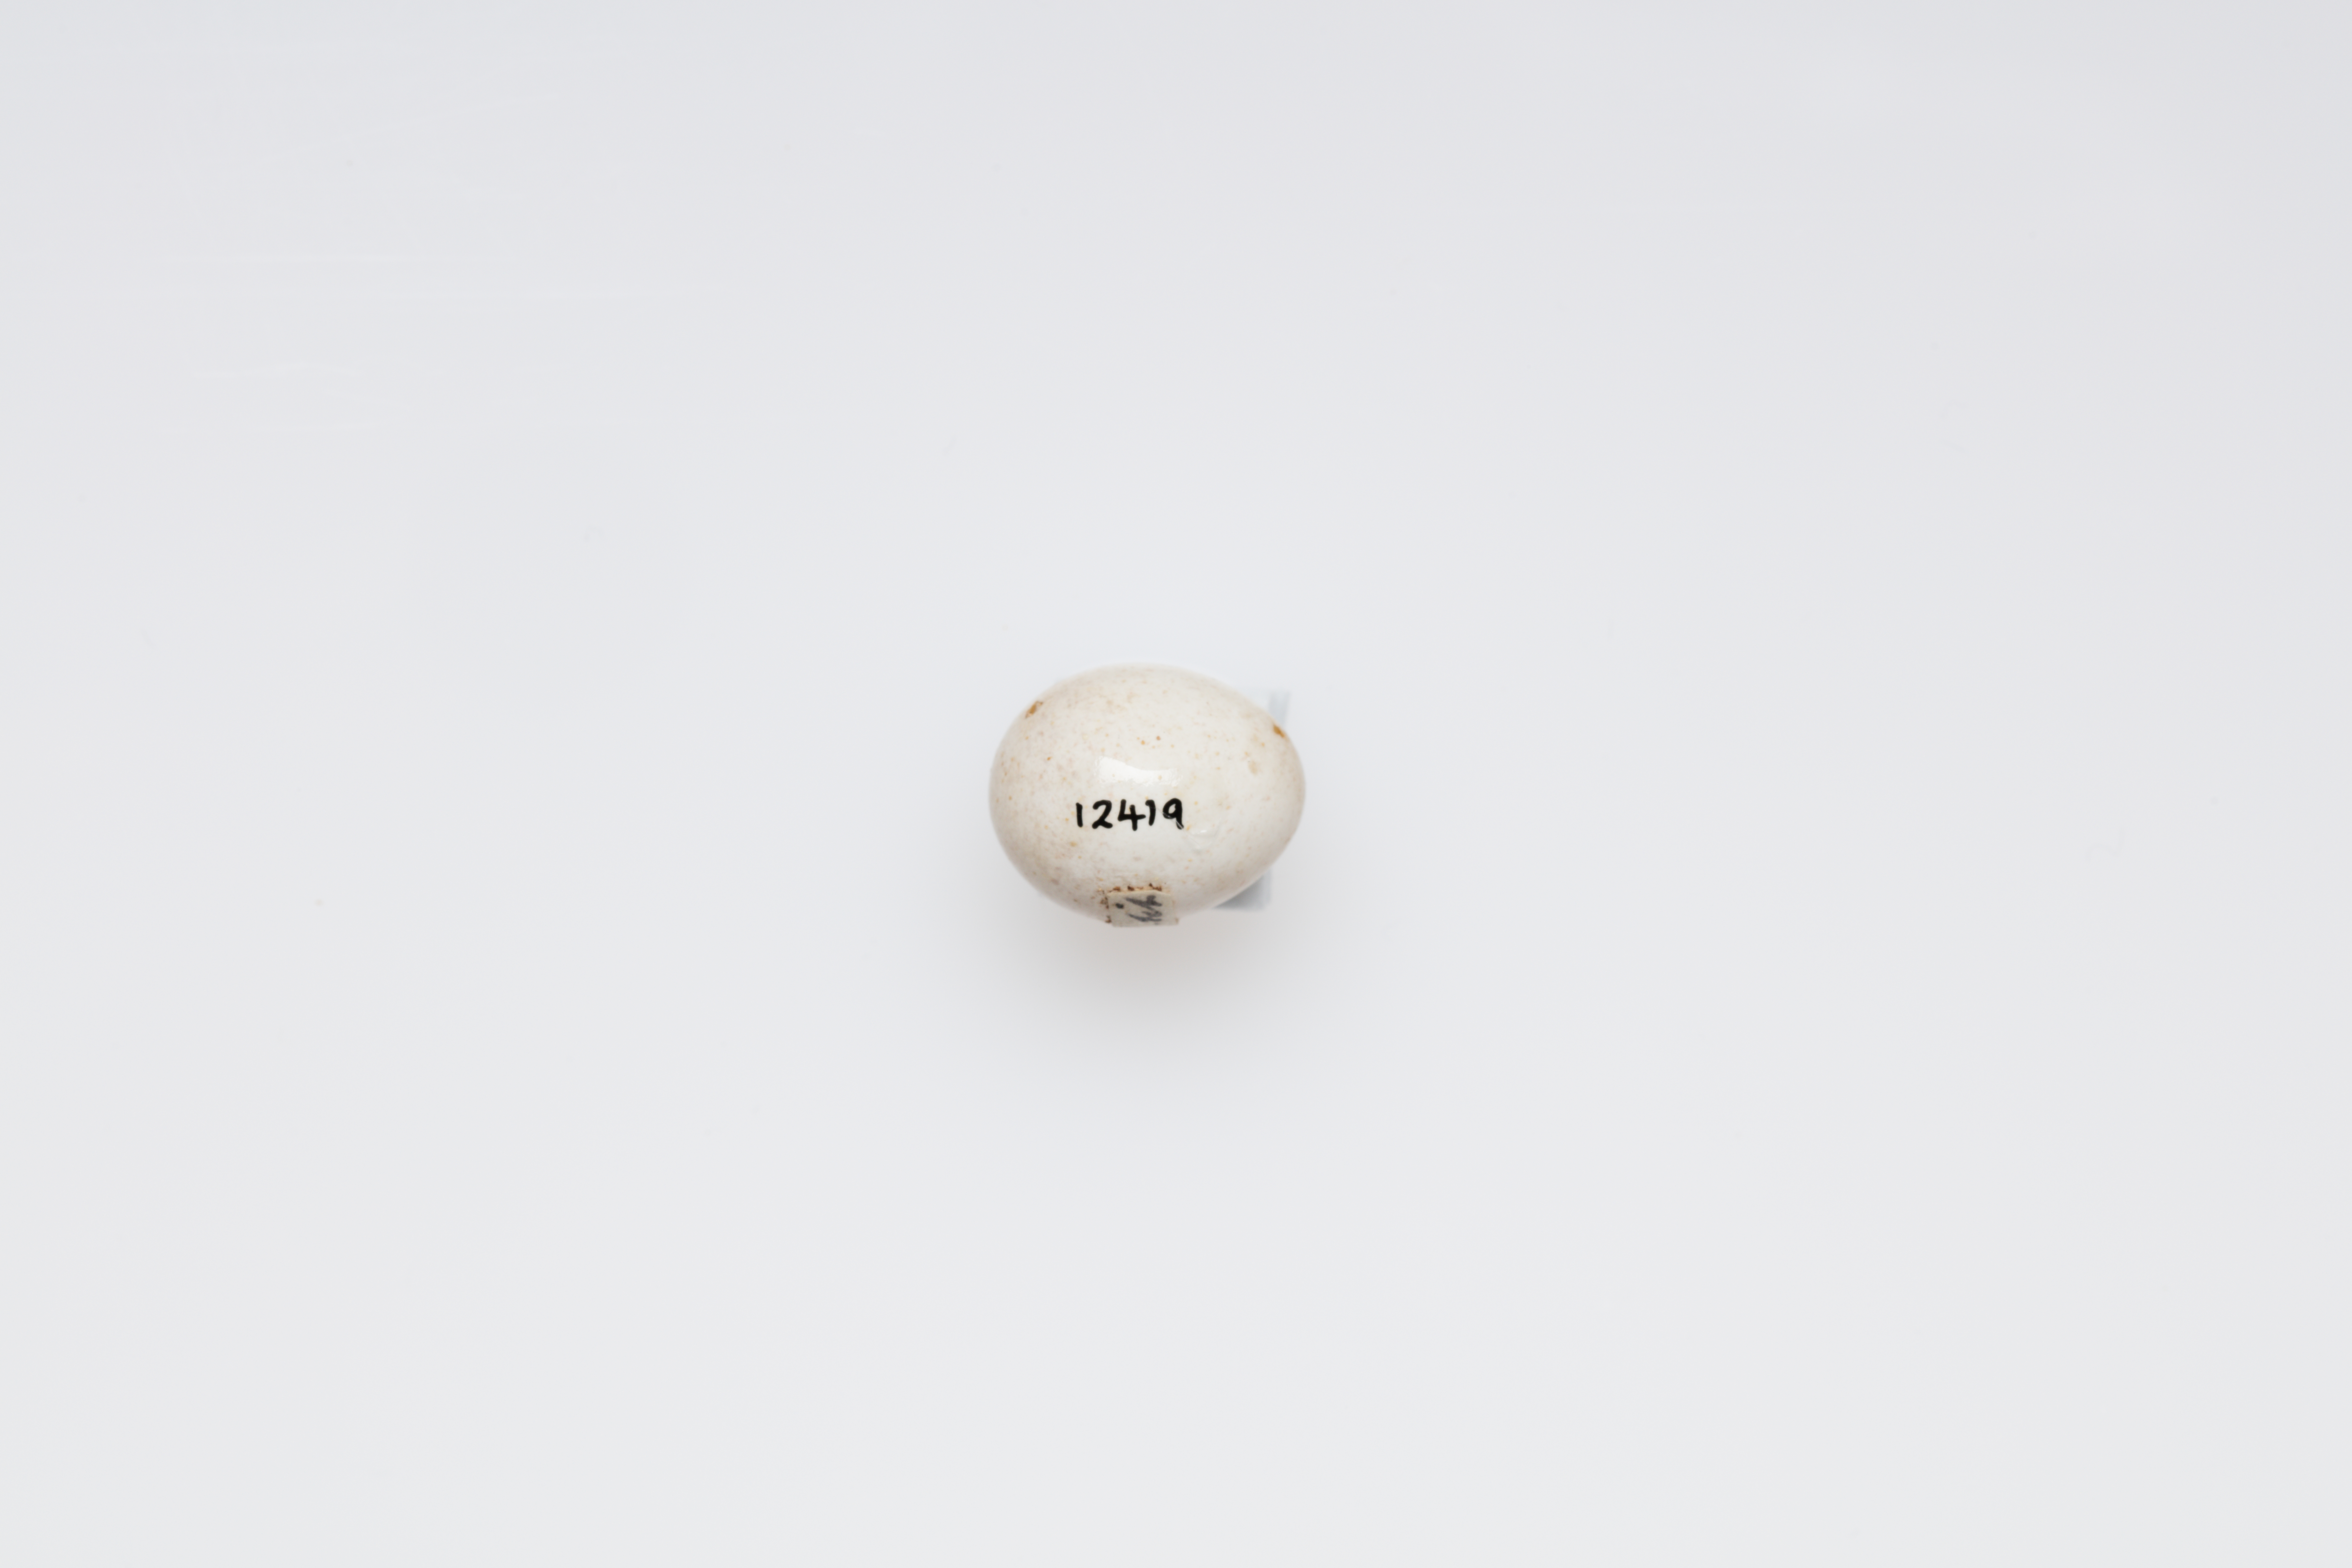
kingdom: Animalia
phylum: Chordata
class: Aves
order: Passeriformes
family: Aegithalidae
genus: Aegithalos
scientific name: Aegithalos caudatus
